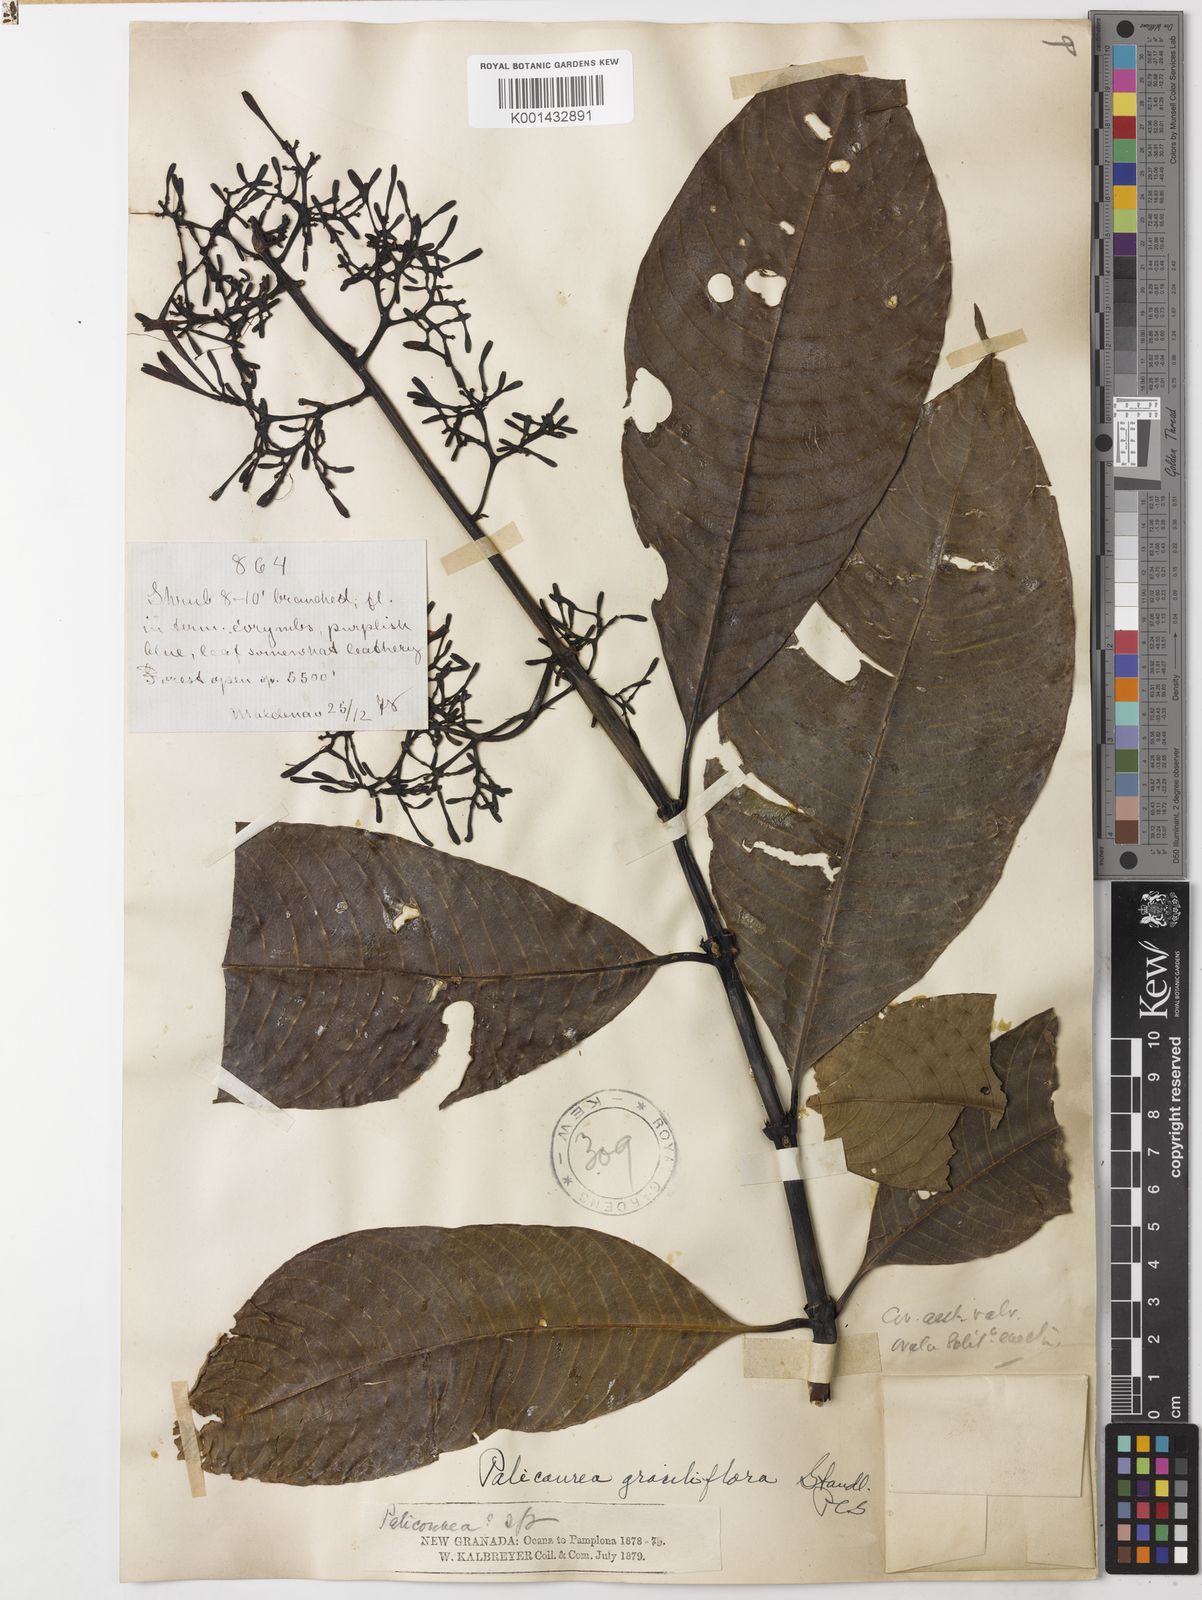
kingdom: Plantae
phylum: Tracheophyta
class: Magnoliopsida
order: Gentianales
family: Rubiaceae
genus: Palicourea
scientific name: Palicourea hospitalis
